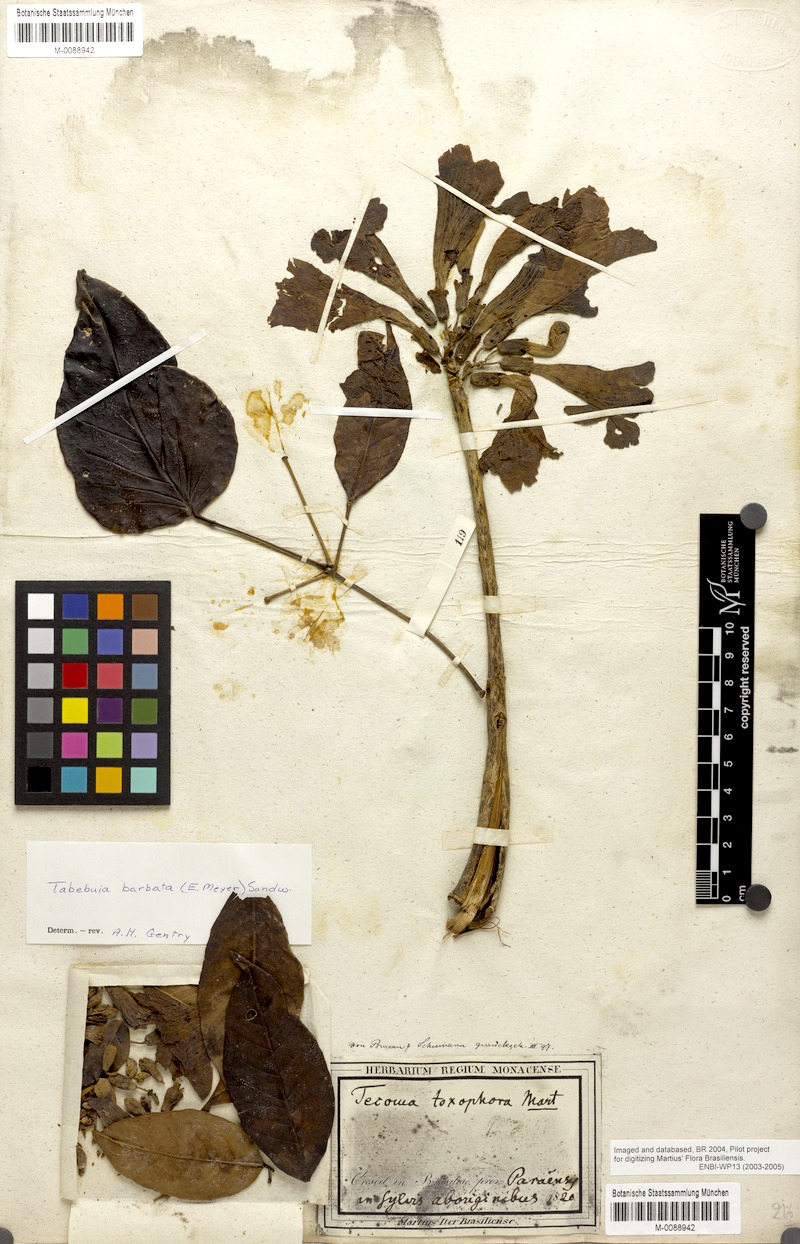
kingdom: Plantae
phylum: Tracheophyta
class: Magnoliopsida
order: Lamiales
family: Bignoniaceae
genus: Handroanthus
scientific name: Handroanthus serratifolius
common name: Yellow ipe
